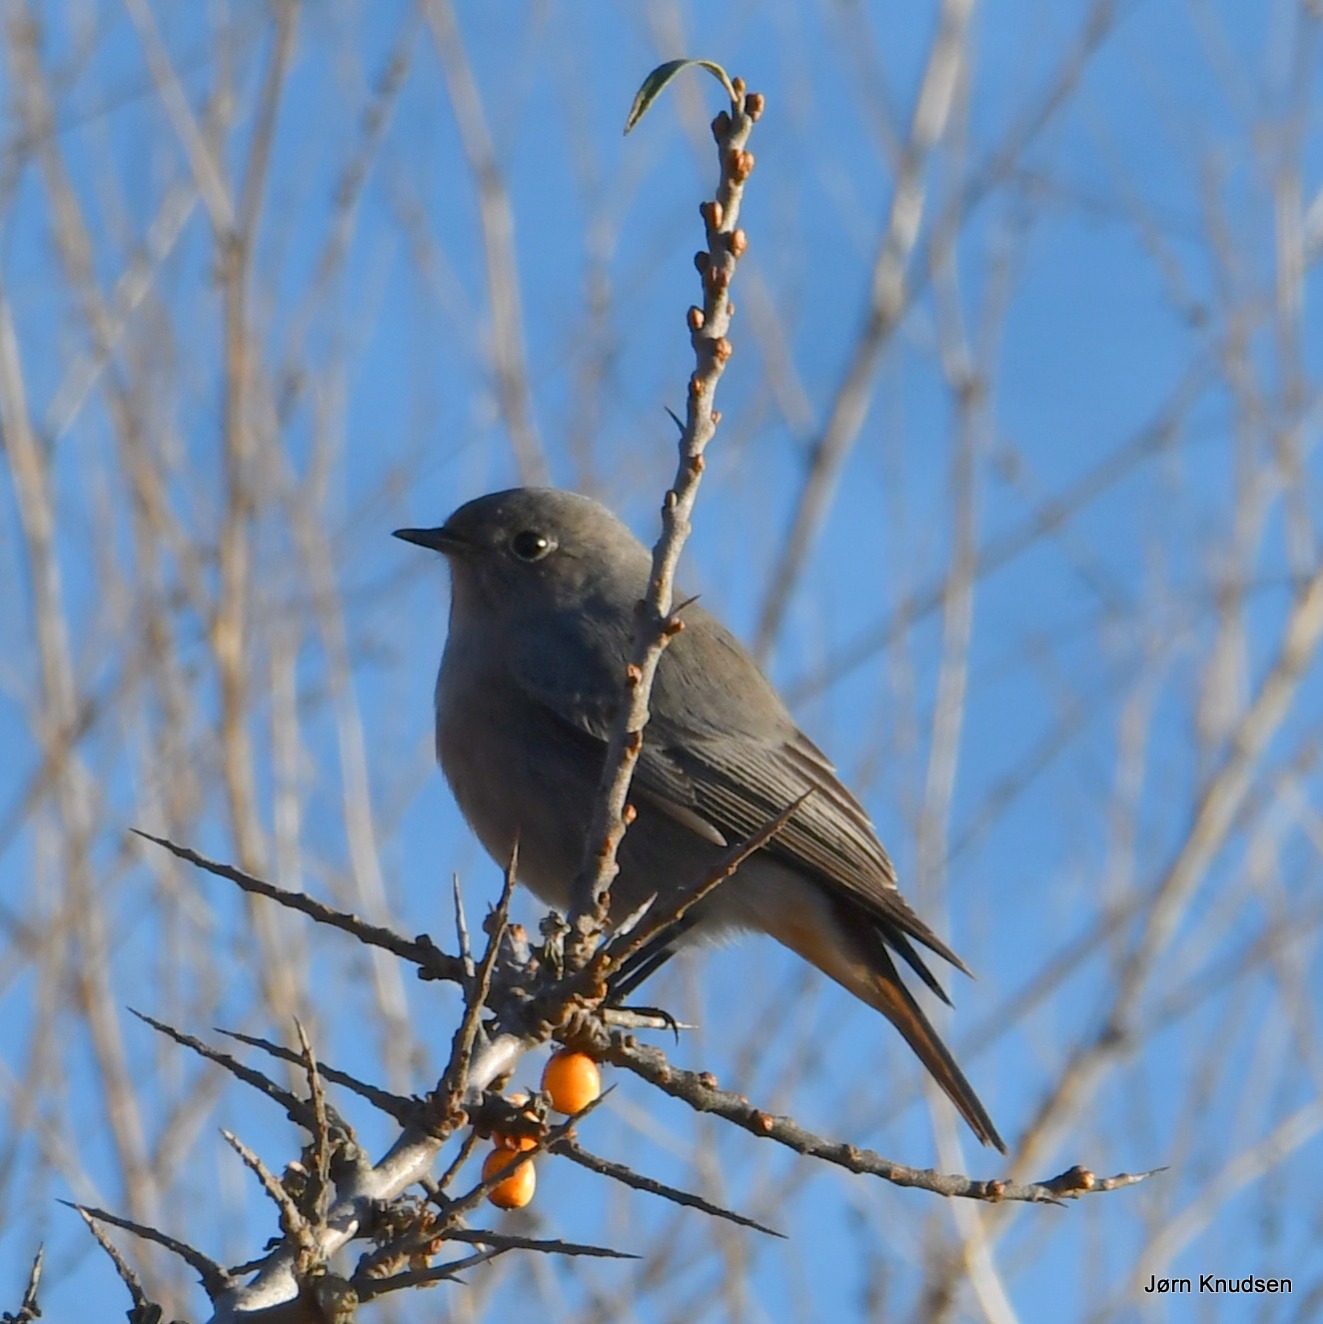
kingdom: Animalia
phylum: Chordata
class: Aves
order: Passeriformes
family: Muscicapidae
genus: Phoenicurus
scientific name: Phoenicurus ochruros
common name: Husrødstjert
